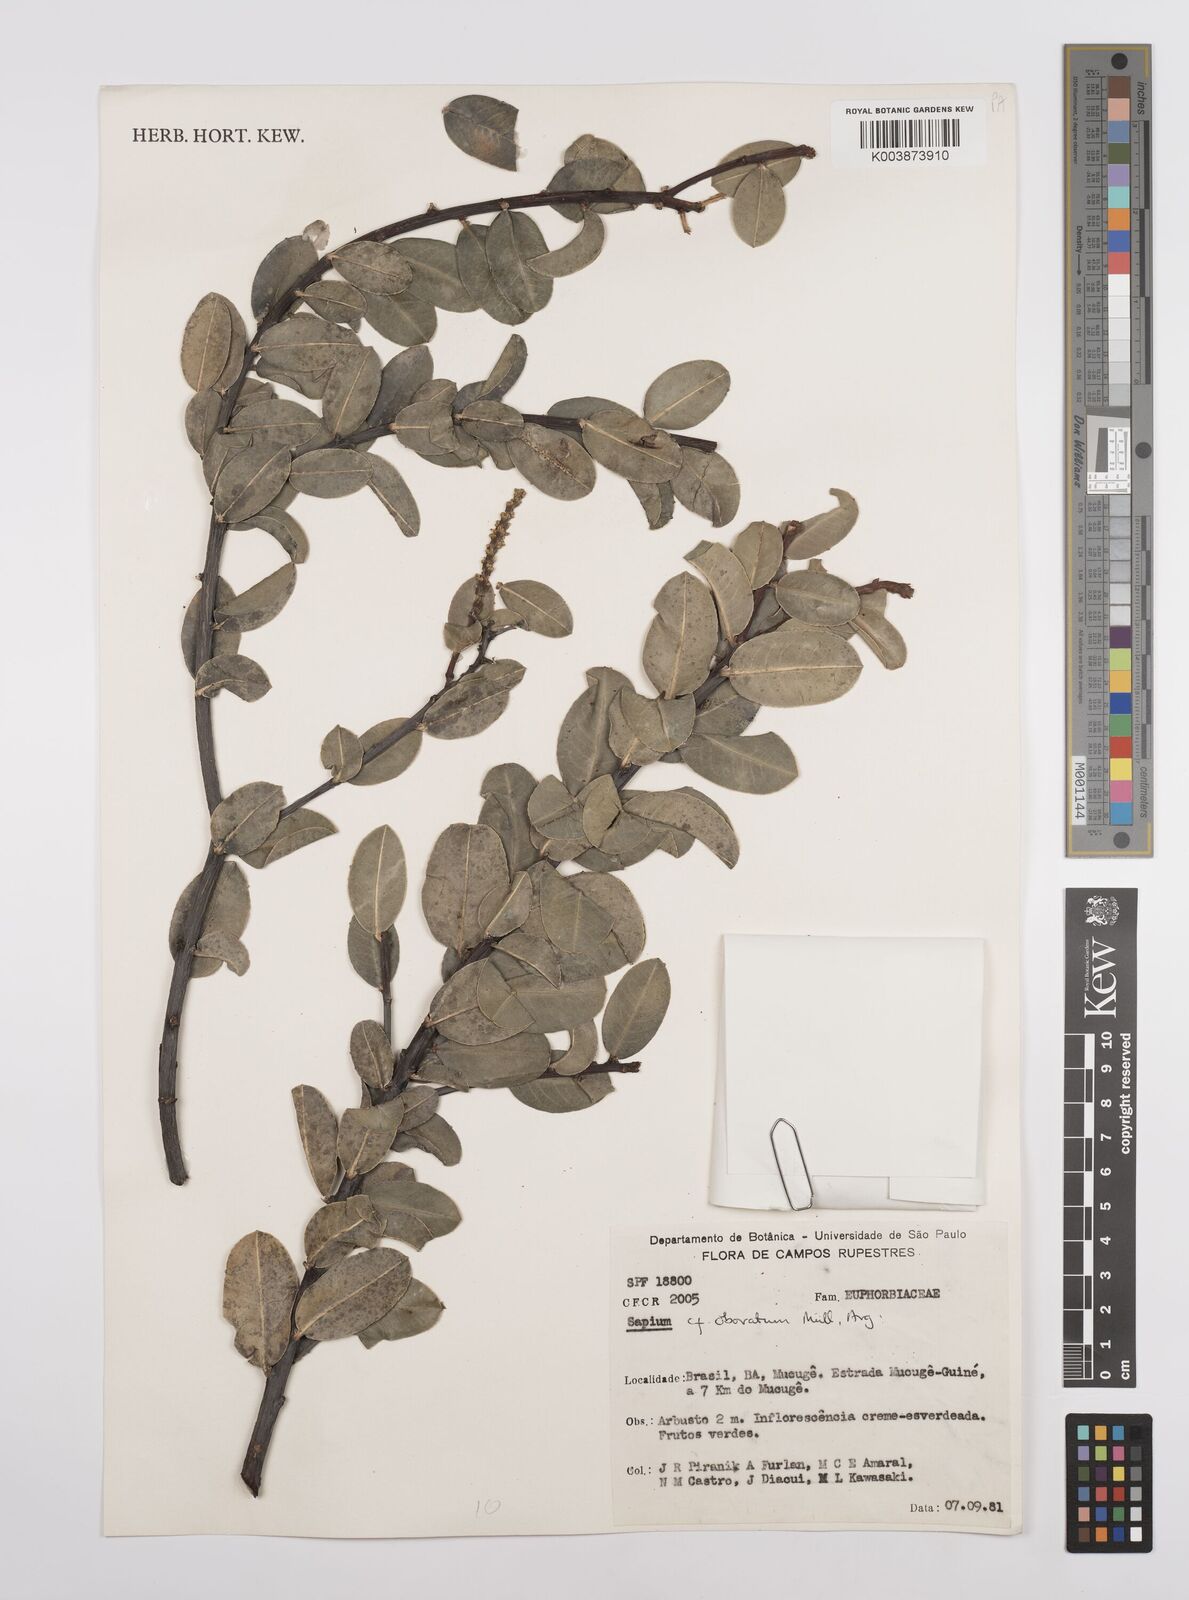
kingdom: Plantae
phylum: Tracheophyta
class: Magnoliopsida
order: Malpighiales
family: Euphorbiaceae
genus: Sapium
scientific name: Sapium obovatum
